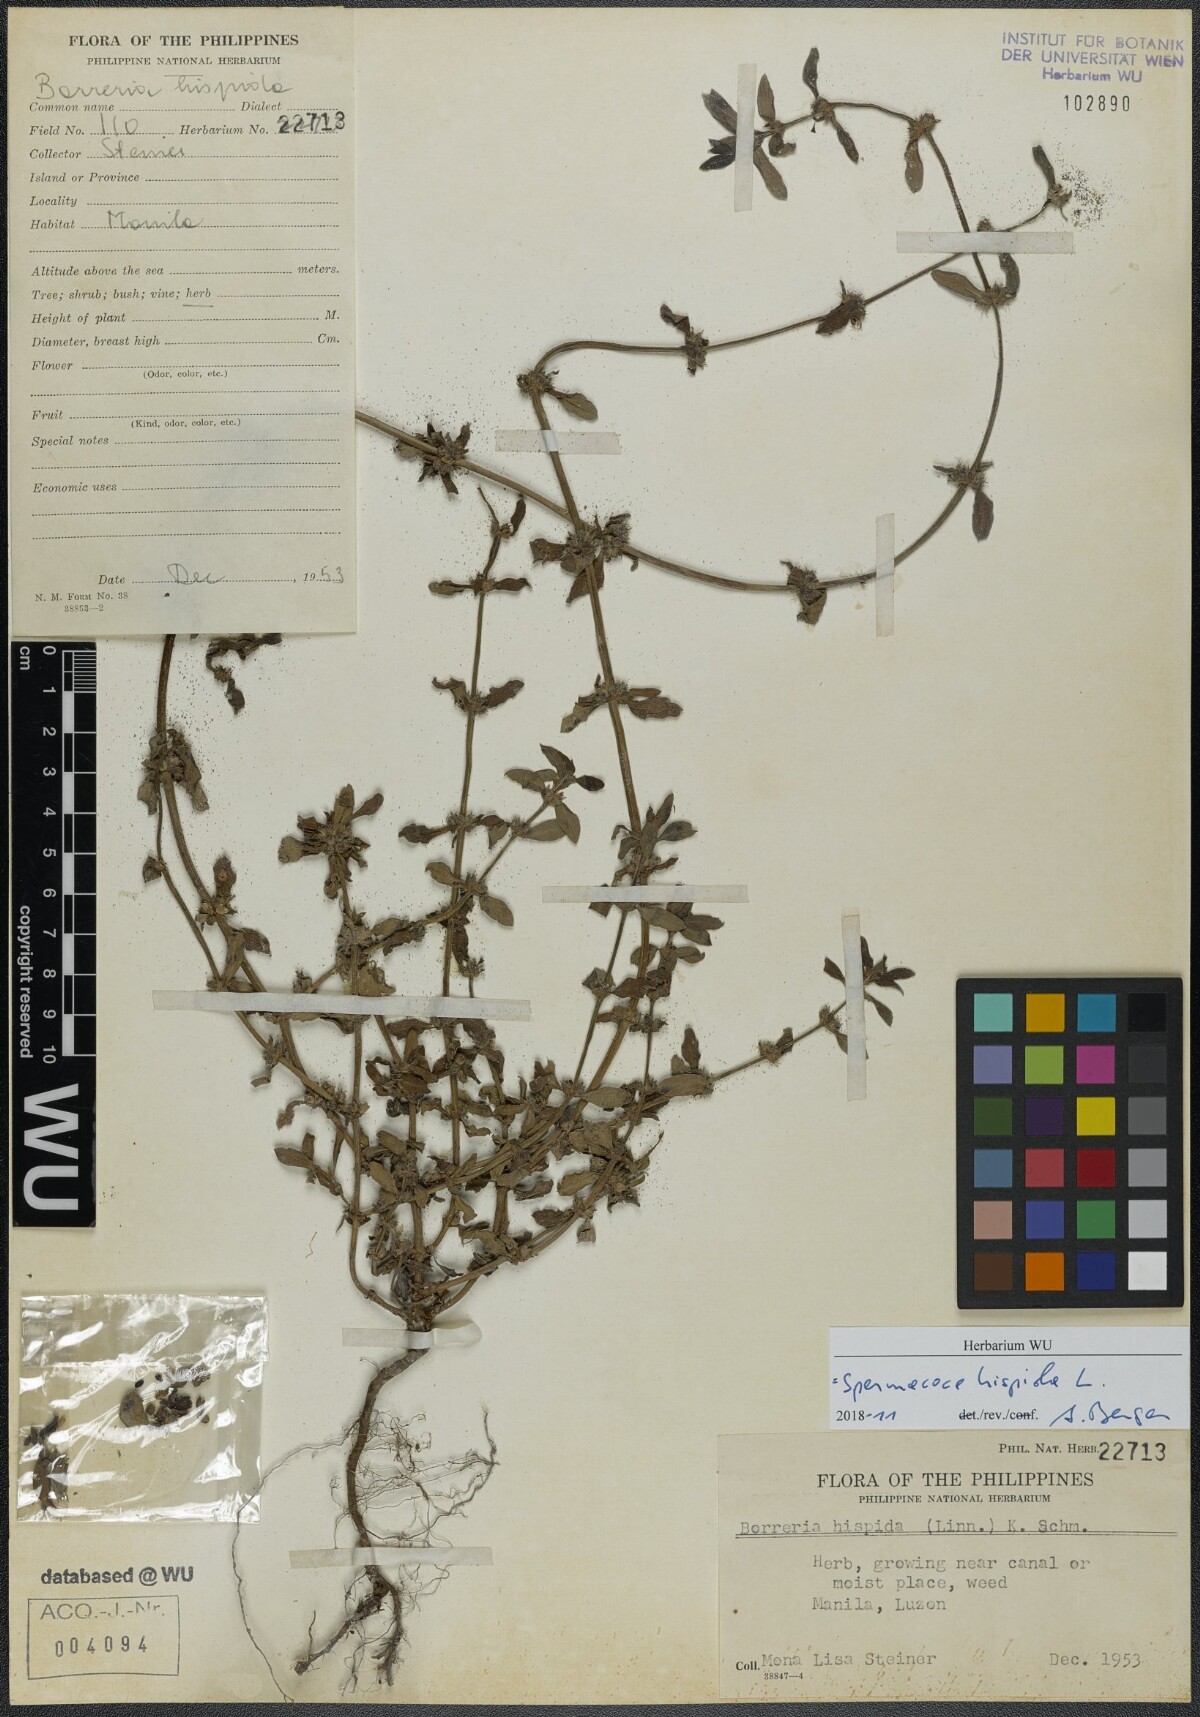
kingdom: Plantae
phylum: Tracheophyta
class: Magnoliopsida
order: Gentianales
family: Rubiaceae
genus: Spermacoce
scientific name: Spermacoce hispida
